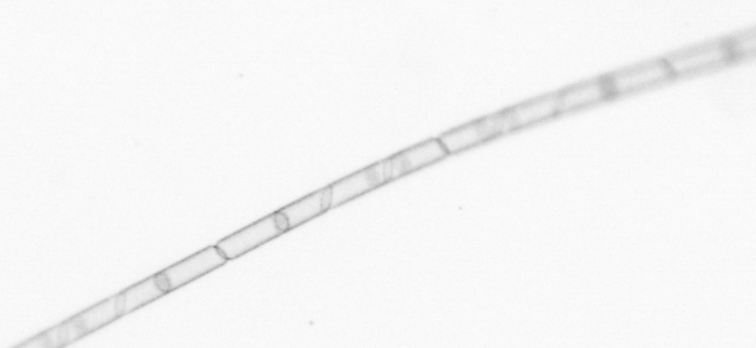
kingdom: Chromista
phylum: Ochrophyta
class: Bacillariophyceae
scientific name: Bacillariophyceae
